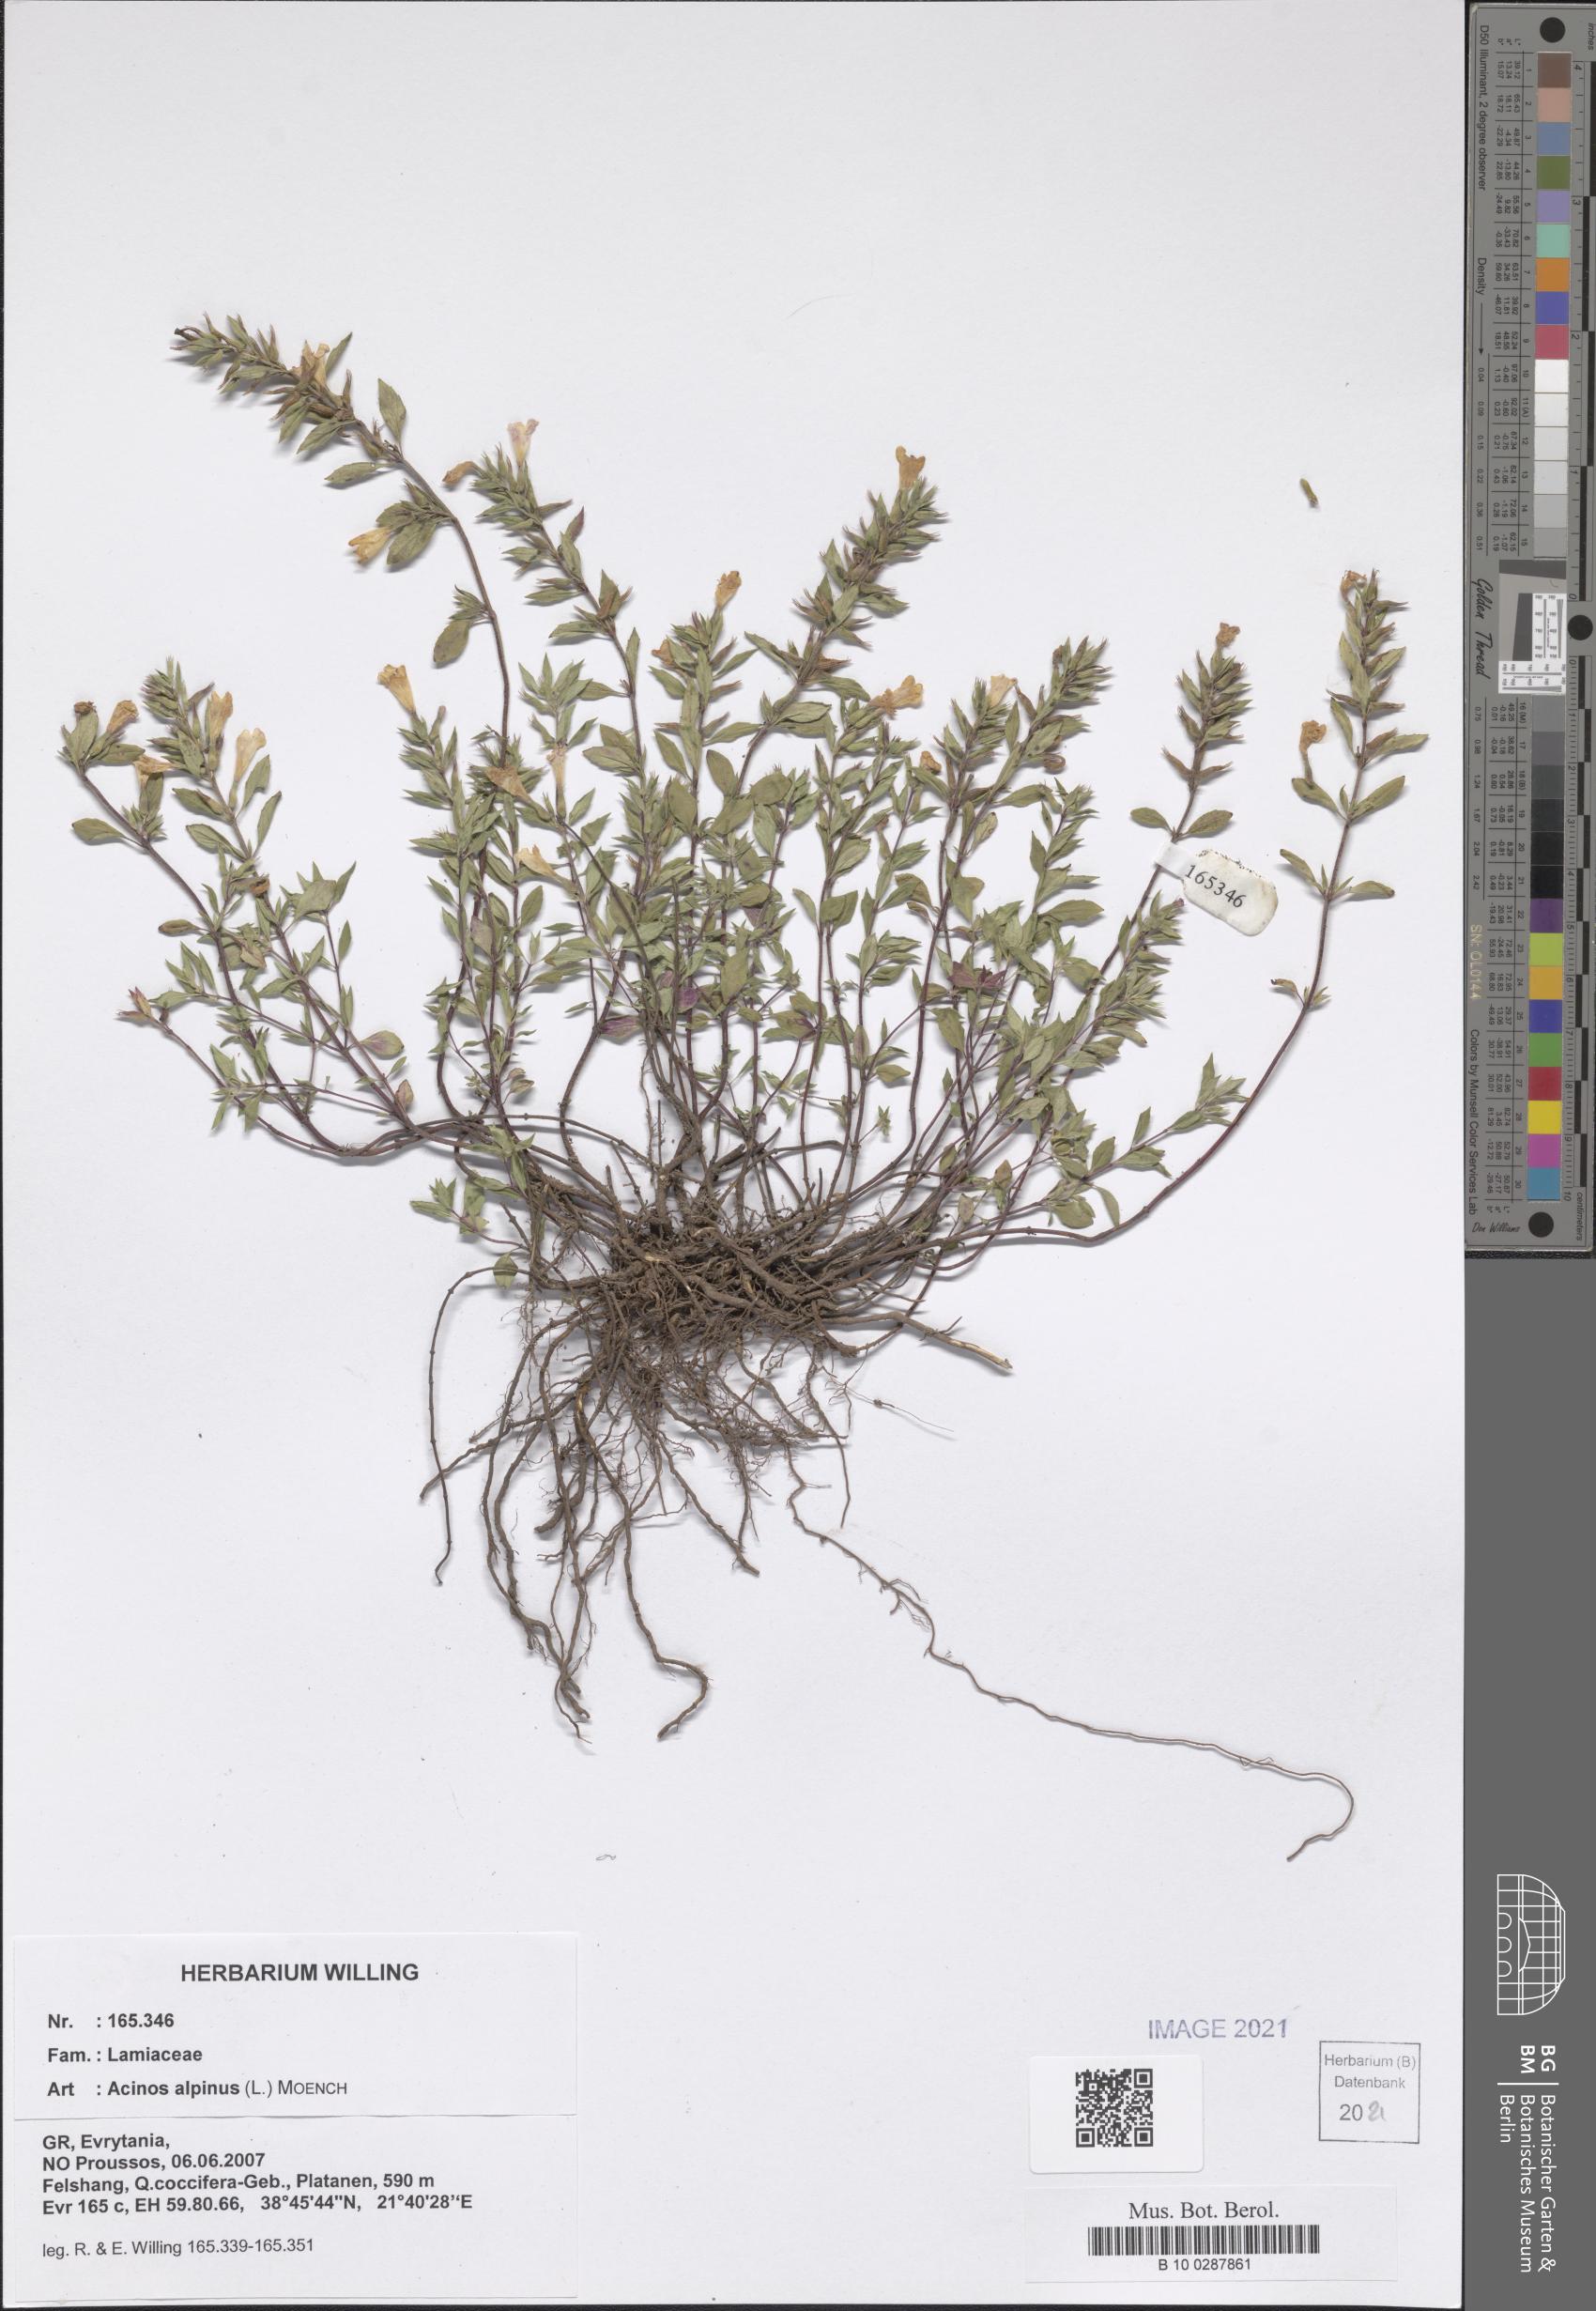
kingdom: Plantae
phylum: Tracheophyta
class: Magnoliopsida
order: Lamiales
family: Lamiaceae
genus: Clinopodium
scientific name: Clinopodium alpinum
